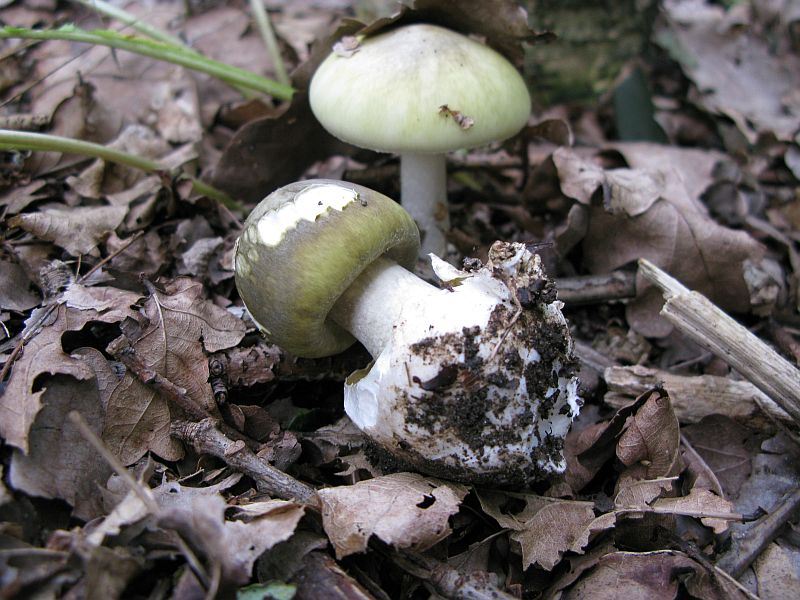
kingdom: Fungi
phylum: Basidiomycota
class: Agaricomycetes
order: Agaricales
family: Amanitaceae
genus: Amanita
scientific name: Amanita phalloides
